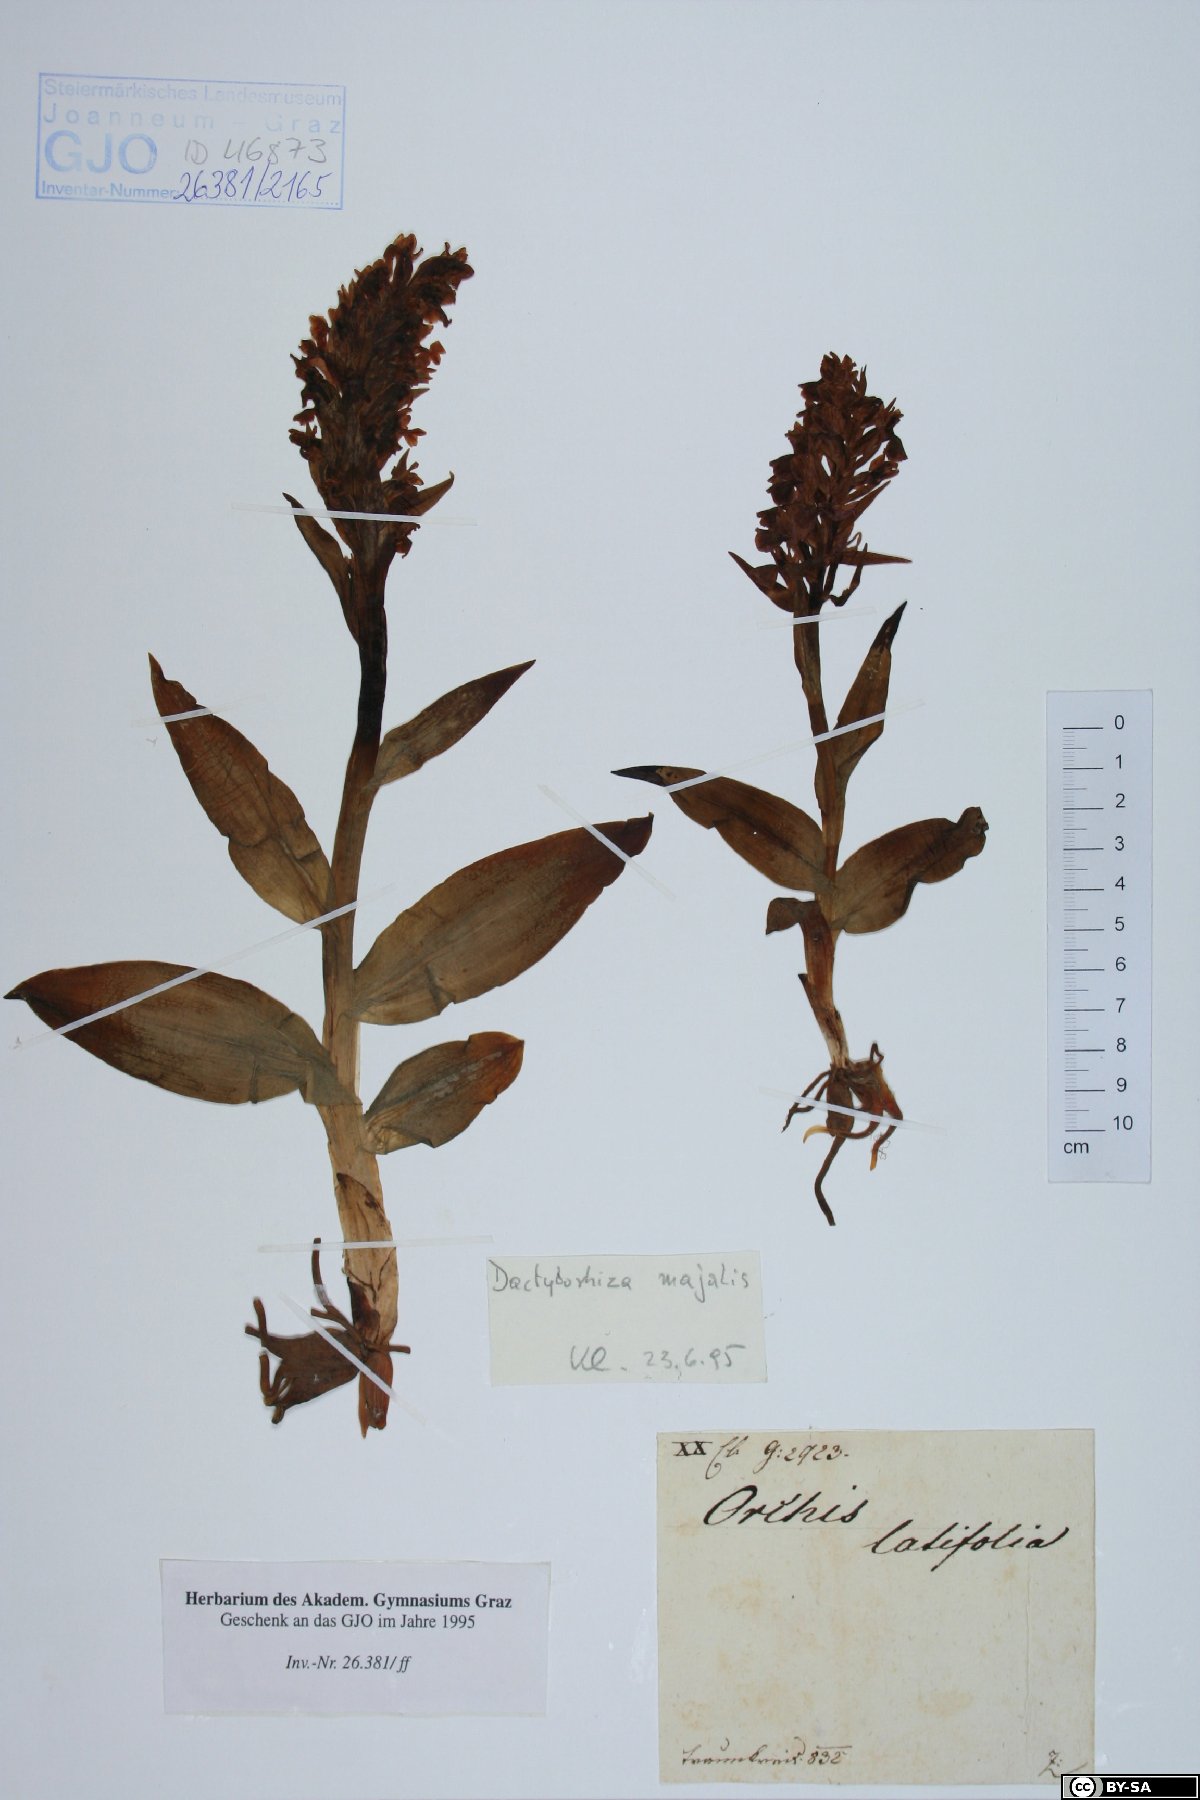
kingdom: Plantae
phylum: Tracheophyta
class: Liliopsida
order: Asparagales
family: Orchidaceae
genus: Dactylorhiza
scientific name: Dactylorhiza majalis
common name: Marsh orchid
